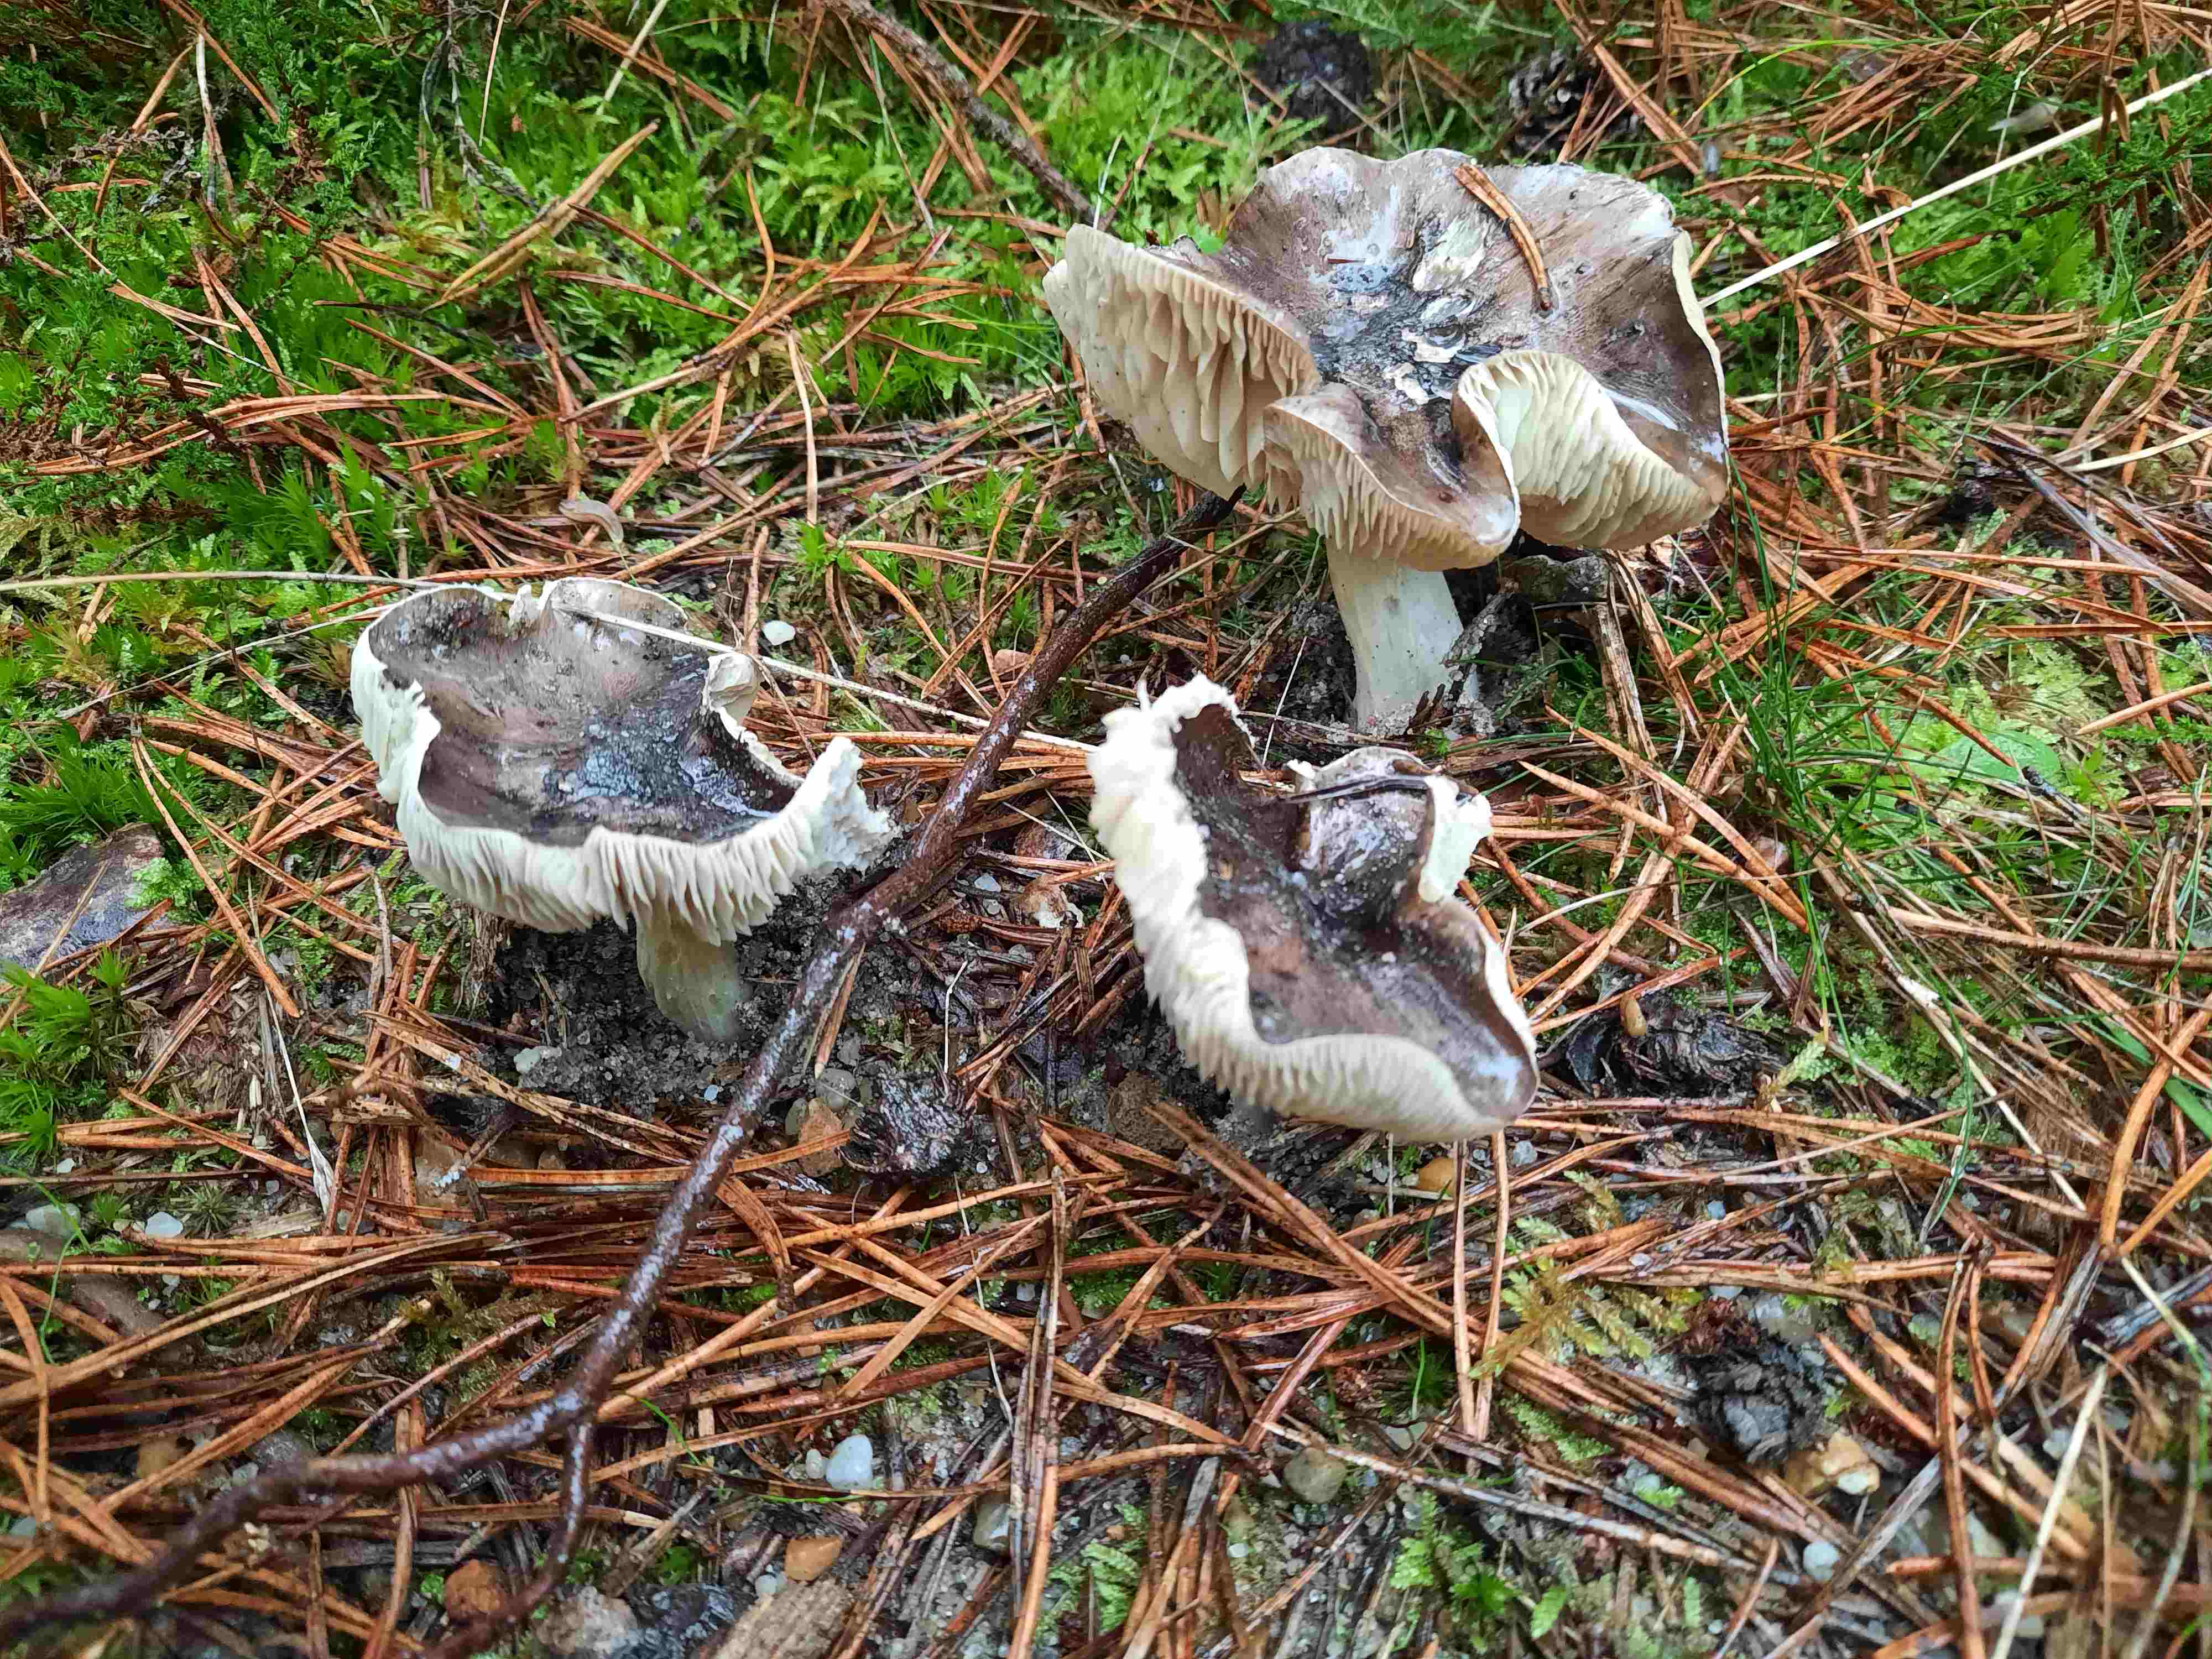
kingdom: Fungi
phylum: Basidiomycota
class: Agaricomycetes
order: Agaricales
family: Tricholomataceae
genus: Tricholoma
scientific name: Tricholoma portentosum
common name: grå ridderhat
